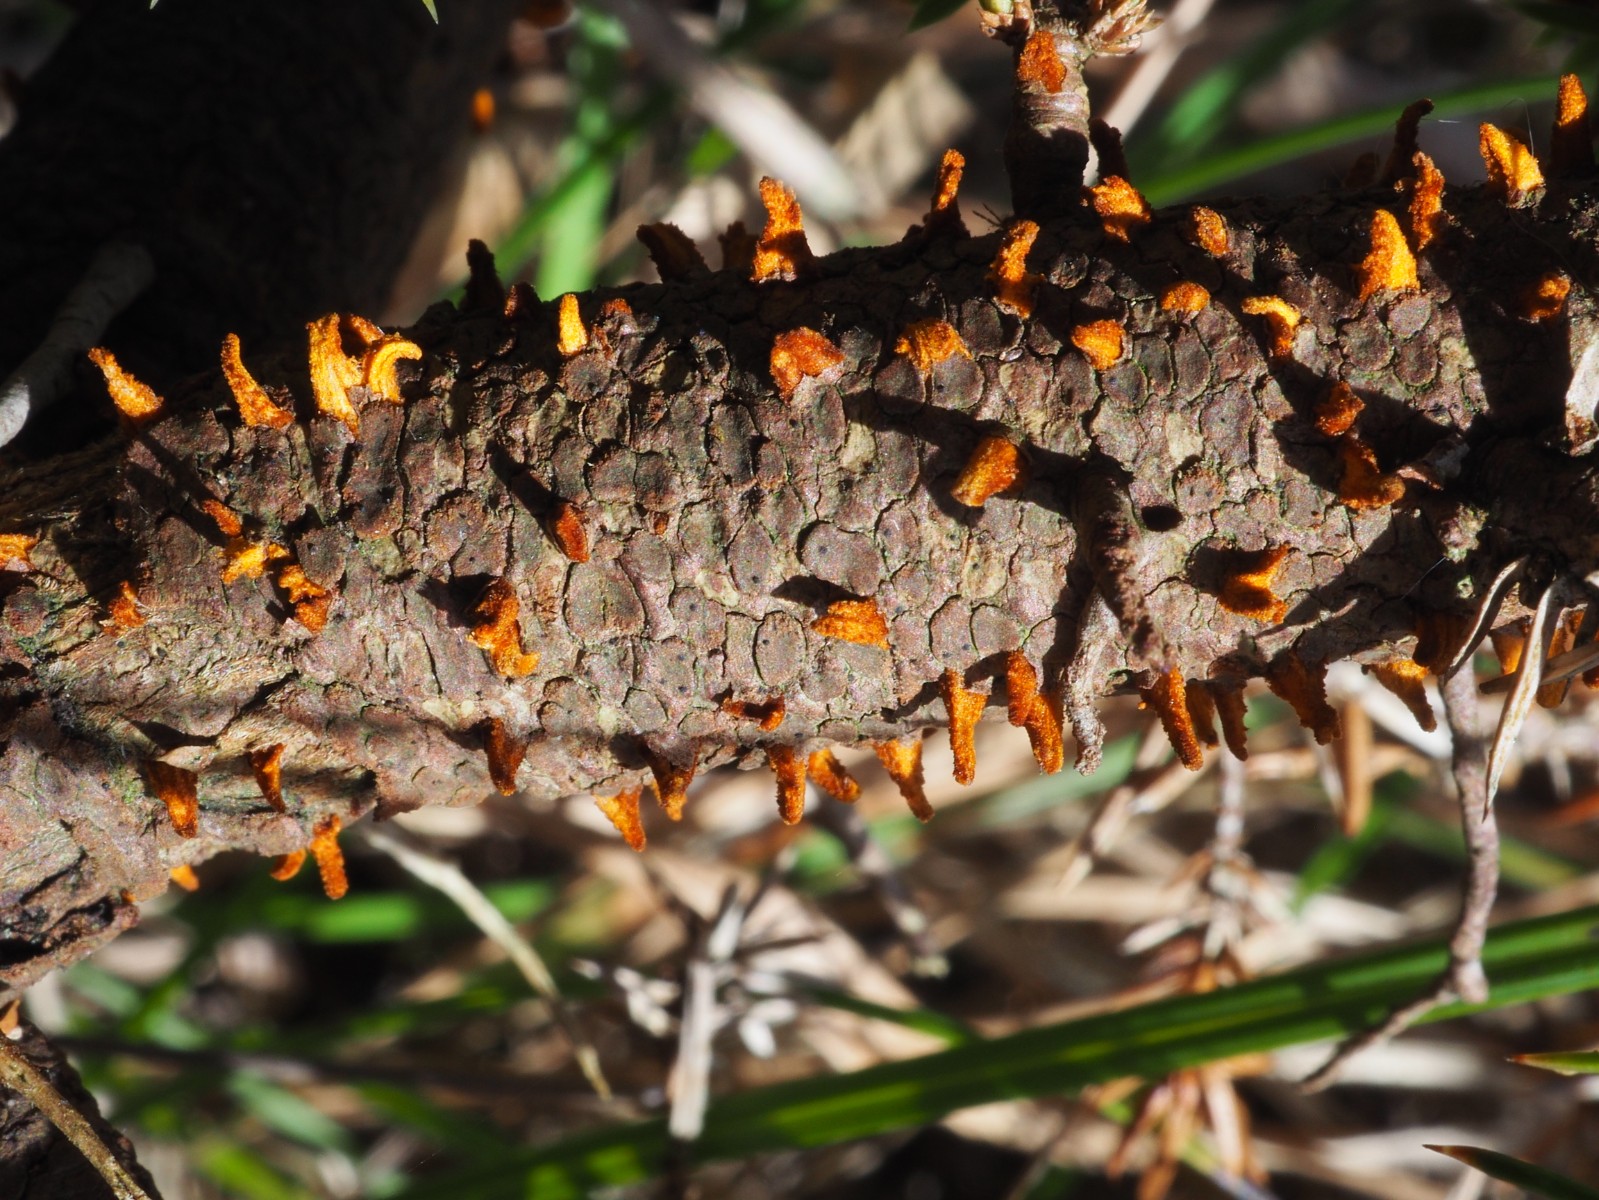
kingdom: Fungi
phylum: Basidiomycota
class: Pucciniomycetes
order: Pucciniales
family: Gymnosporangiaceae
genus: Gymnosporangium
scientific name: Gymnosporangium clavariiforme
